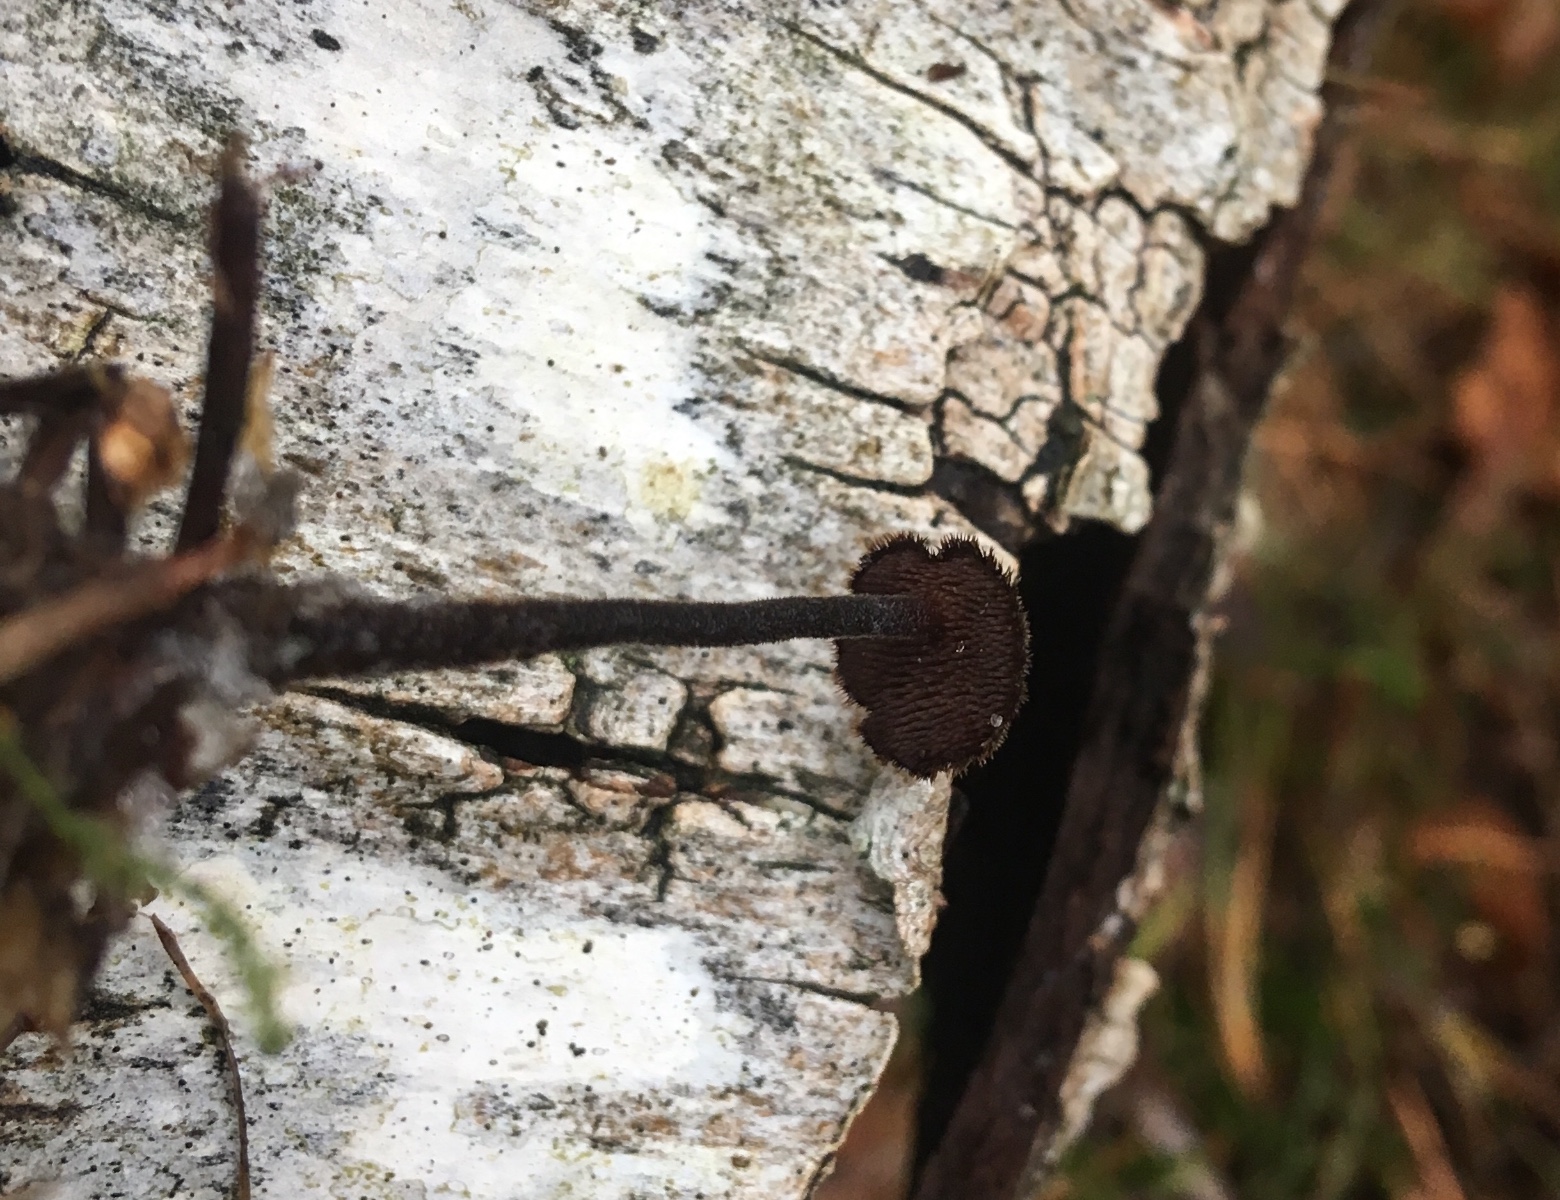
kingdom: Fungi
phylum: Basidiomycota
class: Agaricomycetes
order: Russulales
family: Auriscalpiaceae
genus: Auriscalpium
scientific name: Auriscalpium vulgare
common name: koglepigsvamp
